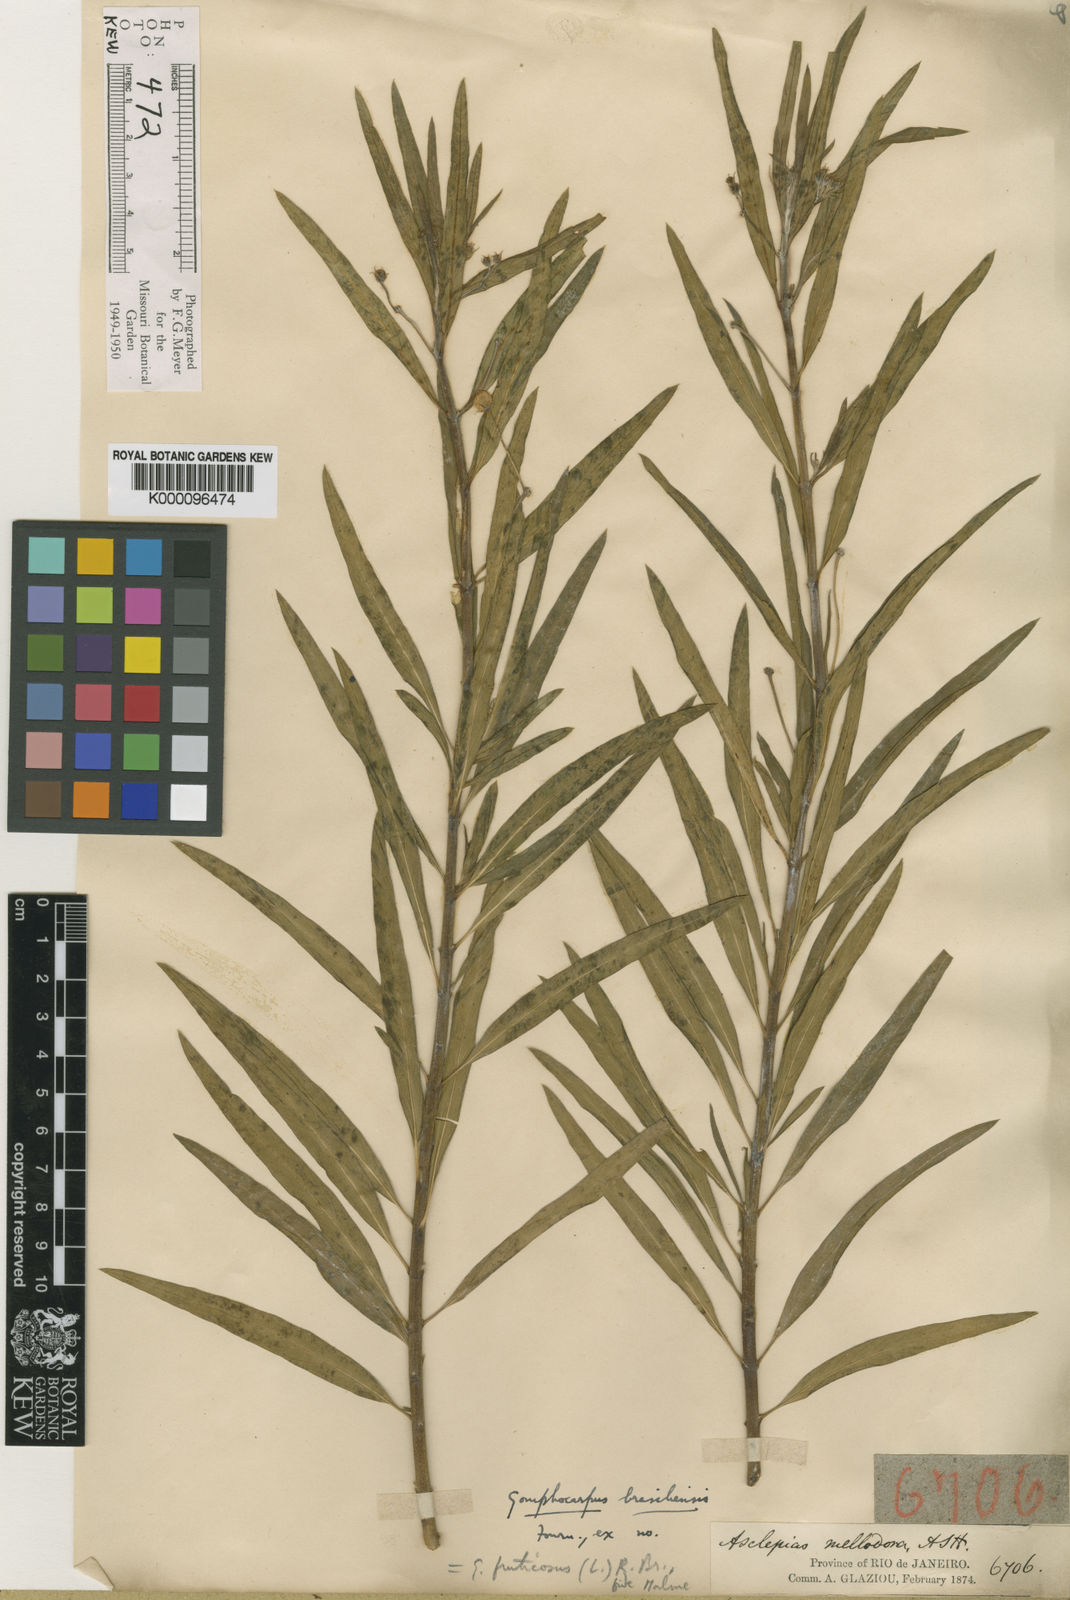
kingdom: Plantae
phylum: Tracheophyta
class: Magnoliopsida
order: Gentianales
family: Apocynaceae
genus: Gomphocarpus
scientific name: Gomphocarpus physocarpus
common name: Balloon cotton bush
